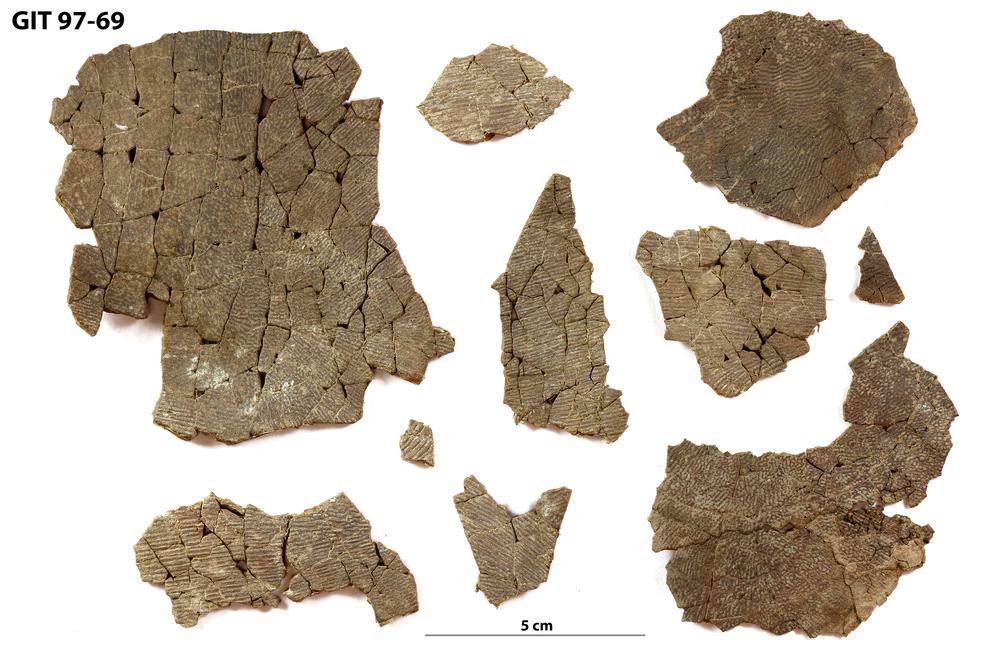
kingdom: Animalia
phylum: Chordata
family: Holonematidae
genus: Holonema
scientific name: Holonema
